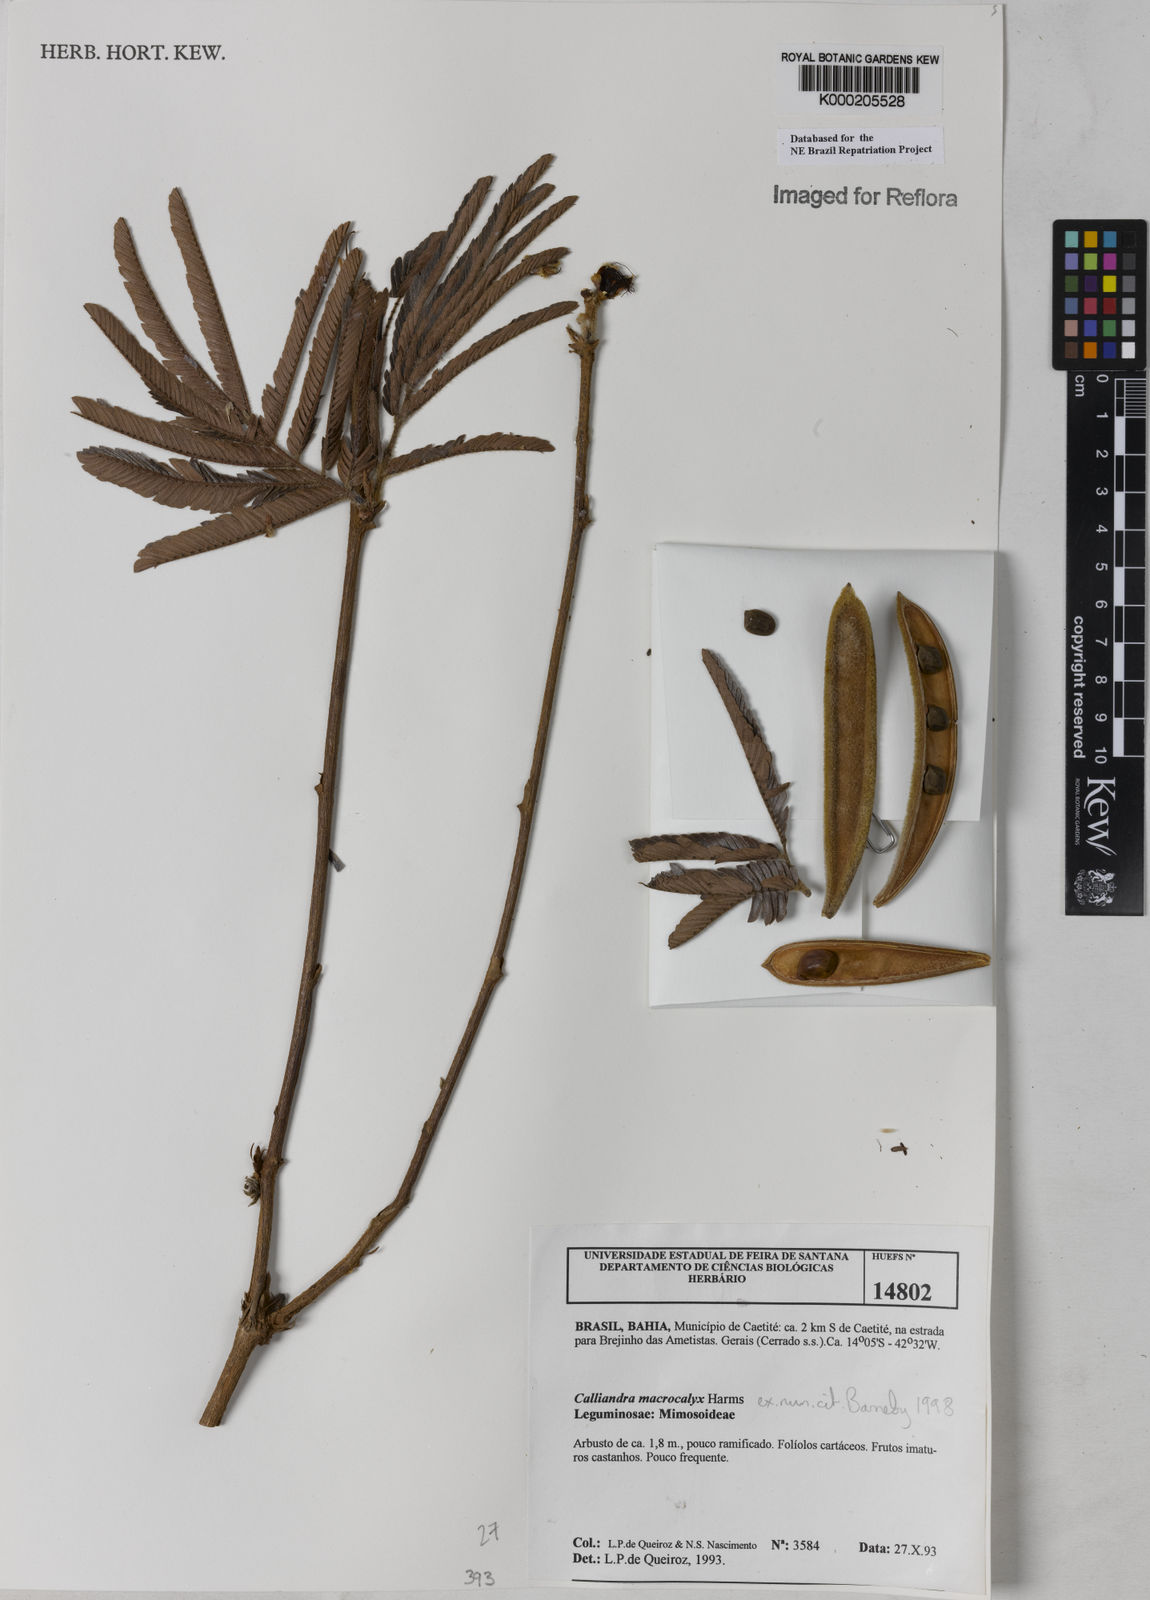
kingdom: Plantae
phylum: Tracheophyta
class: Magnoliopsida
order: Fabales
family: Fabaceae
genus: Calliandra
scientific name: Calliandra macrocalyx
